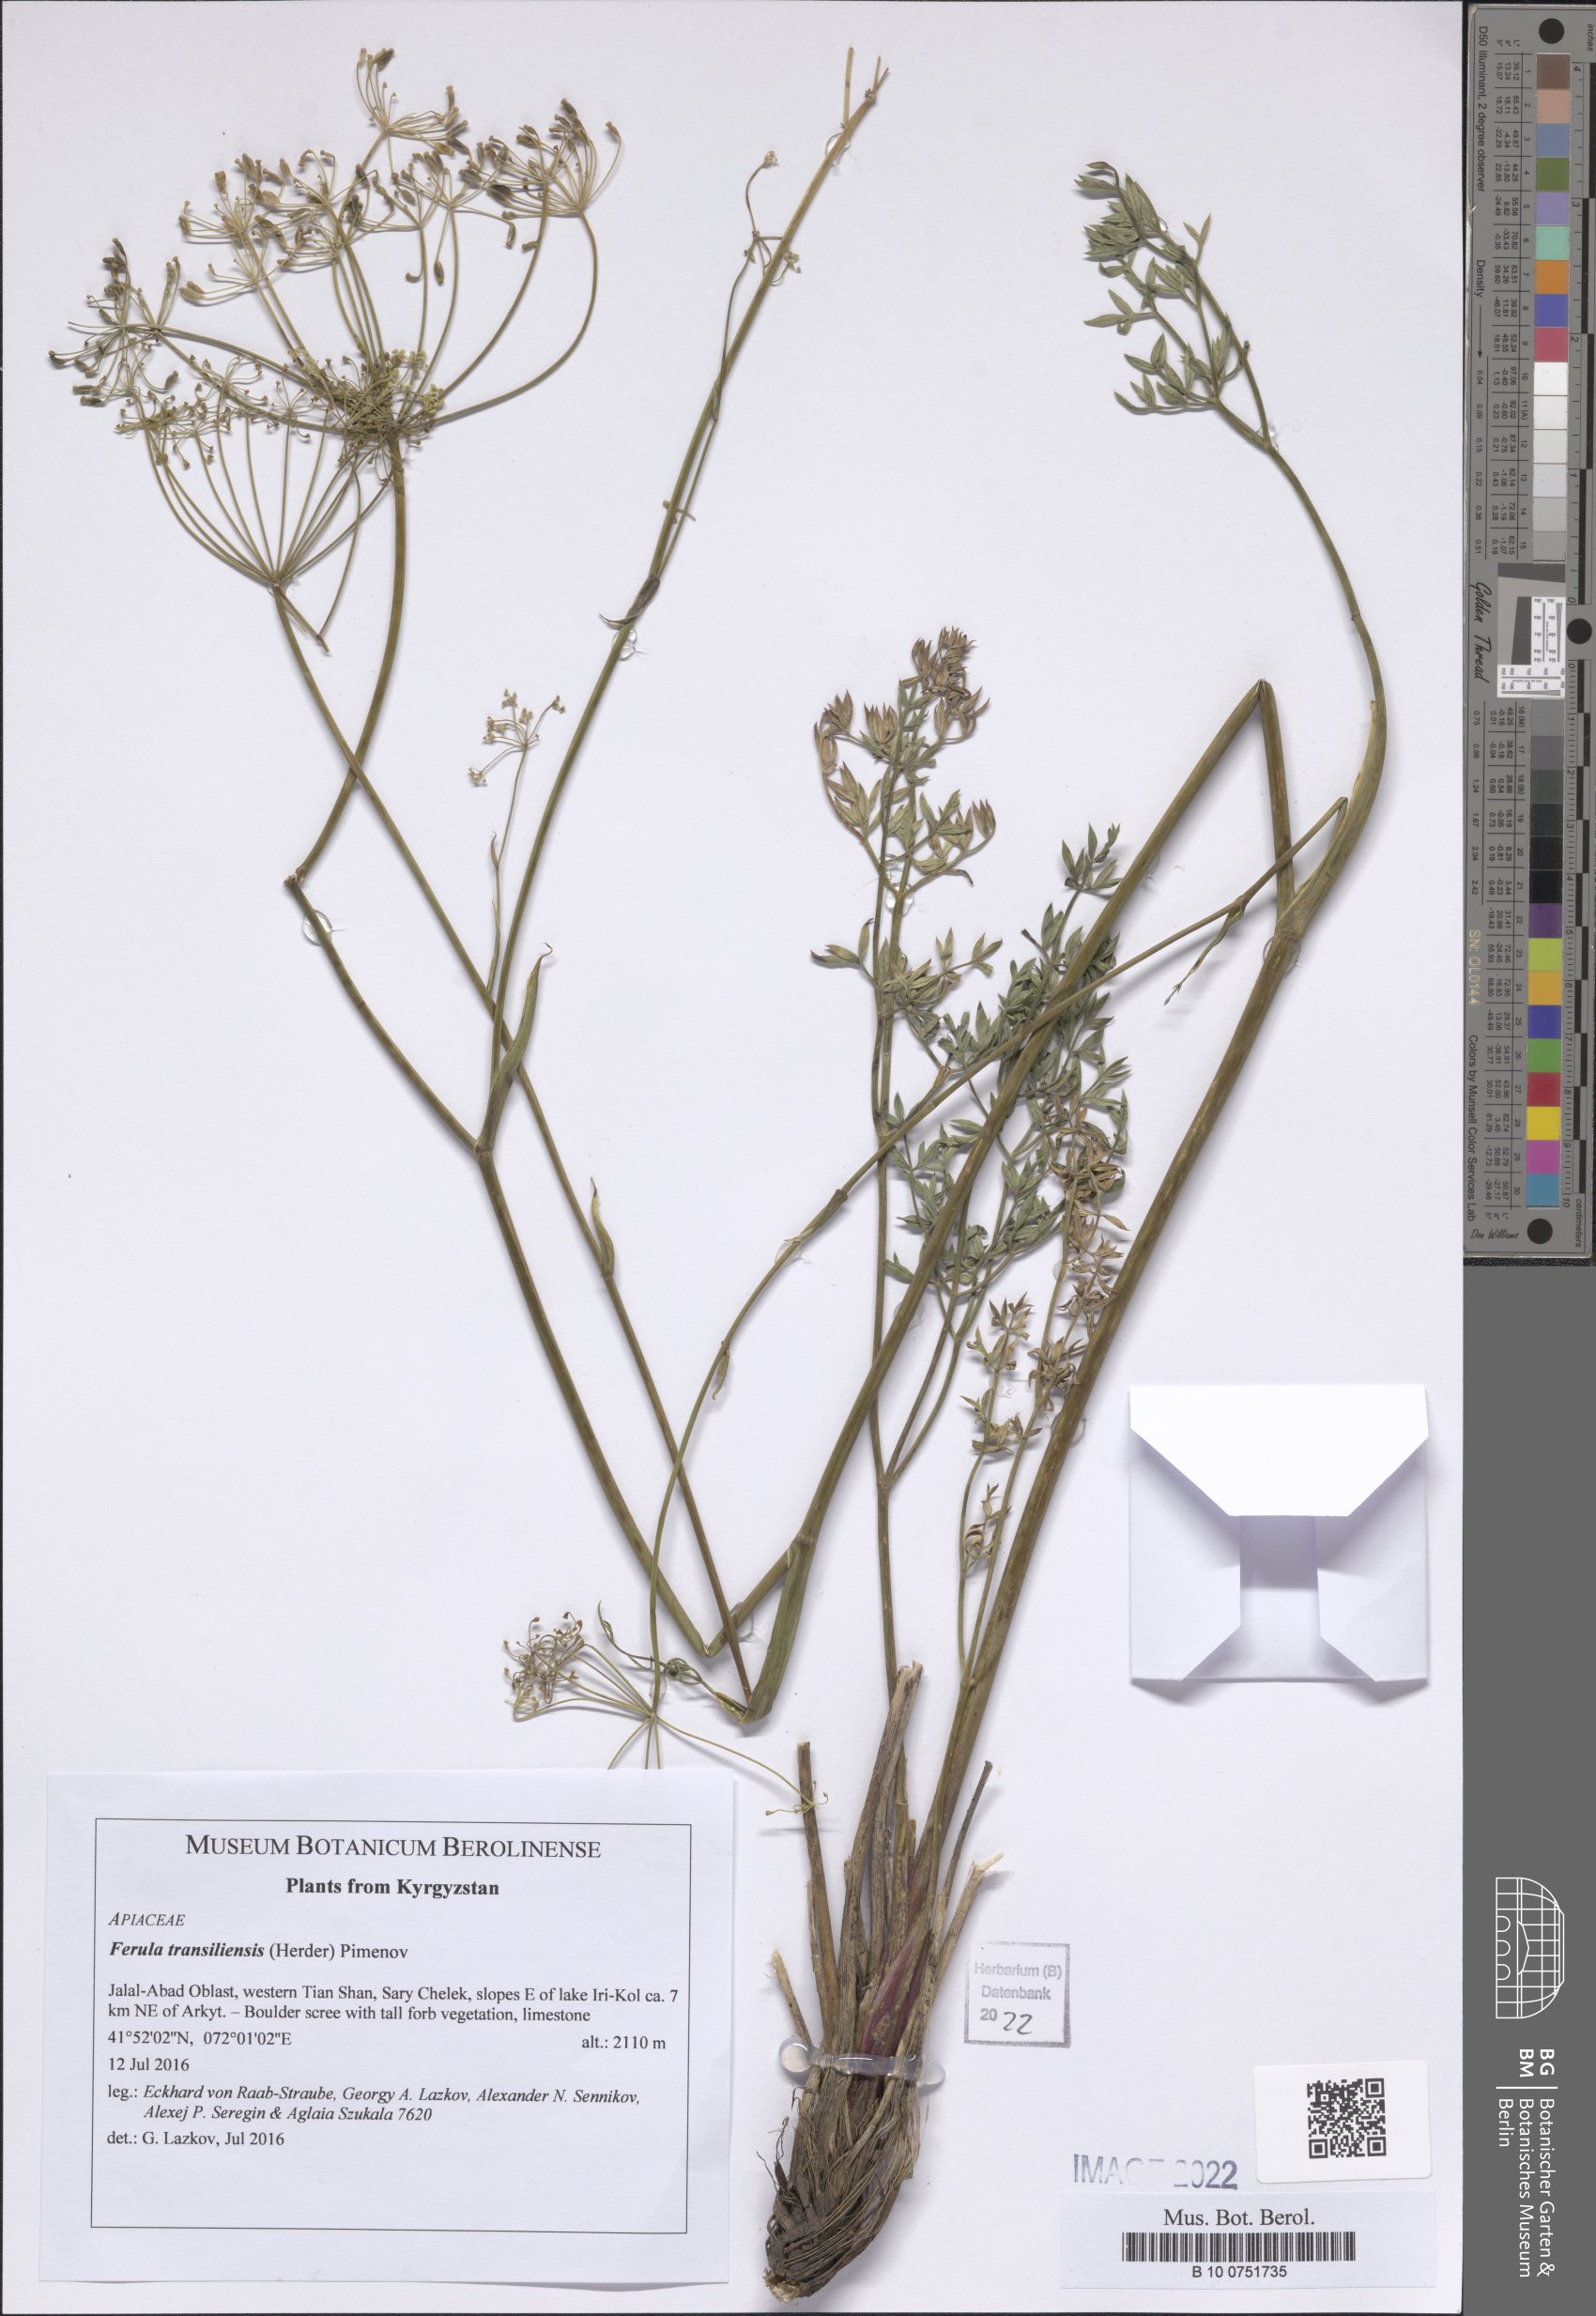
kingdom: Plantae
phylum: Tracheophyta
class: Magnoliopsida
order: Apiales
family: Apiaceae
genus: Ferula
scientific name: Ferula transiliensis
